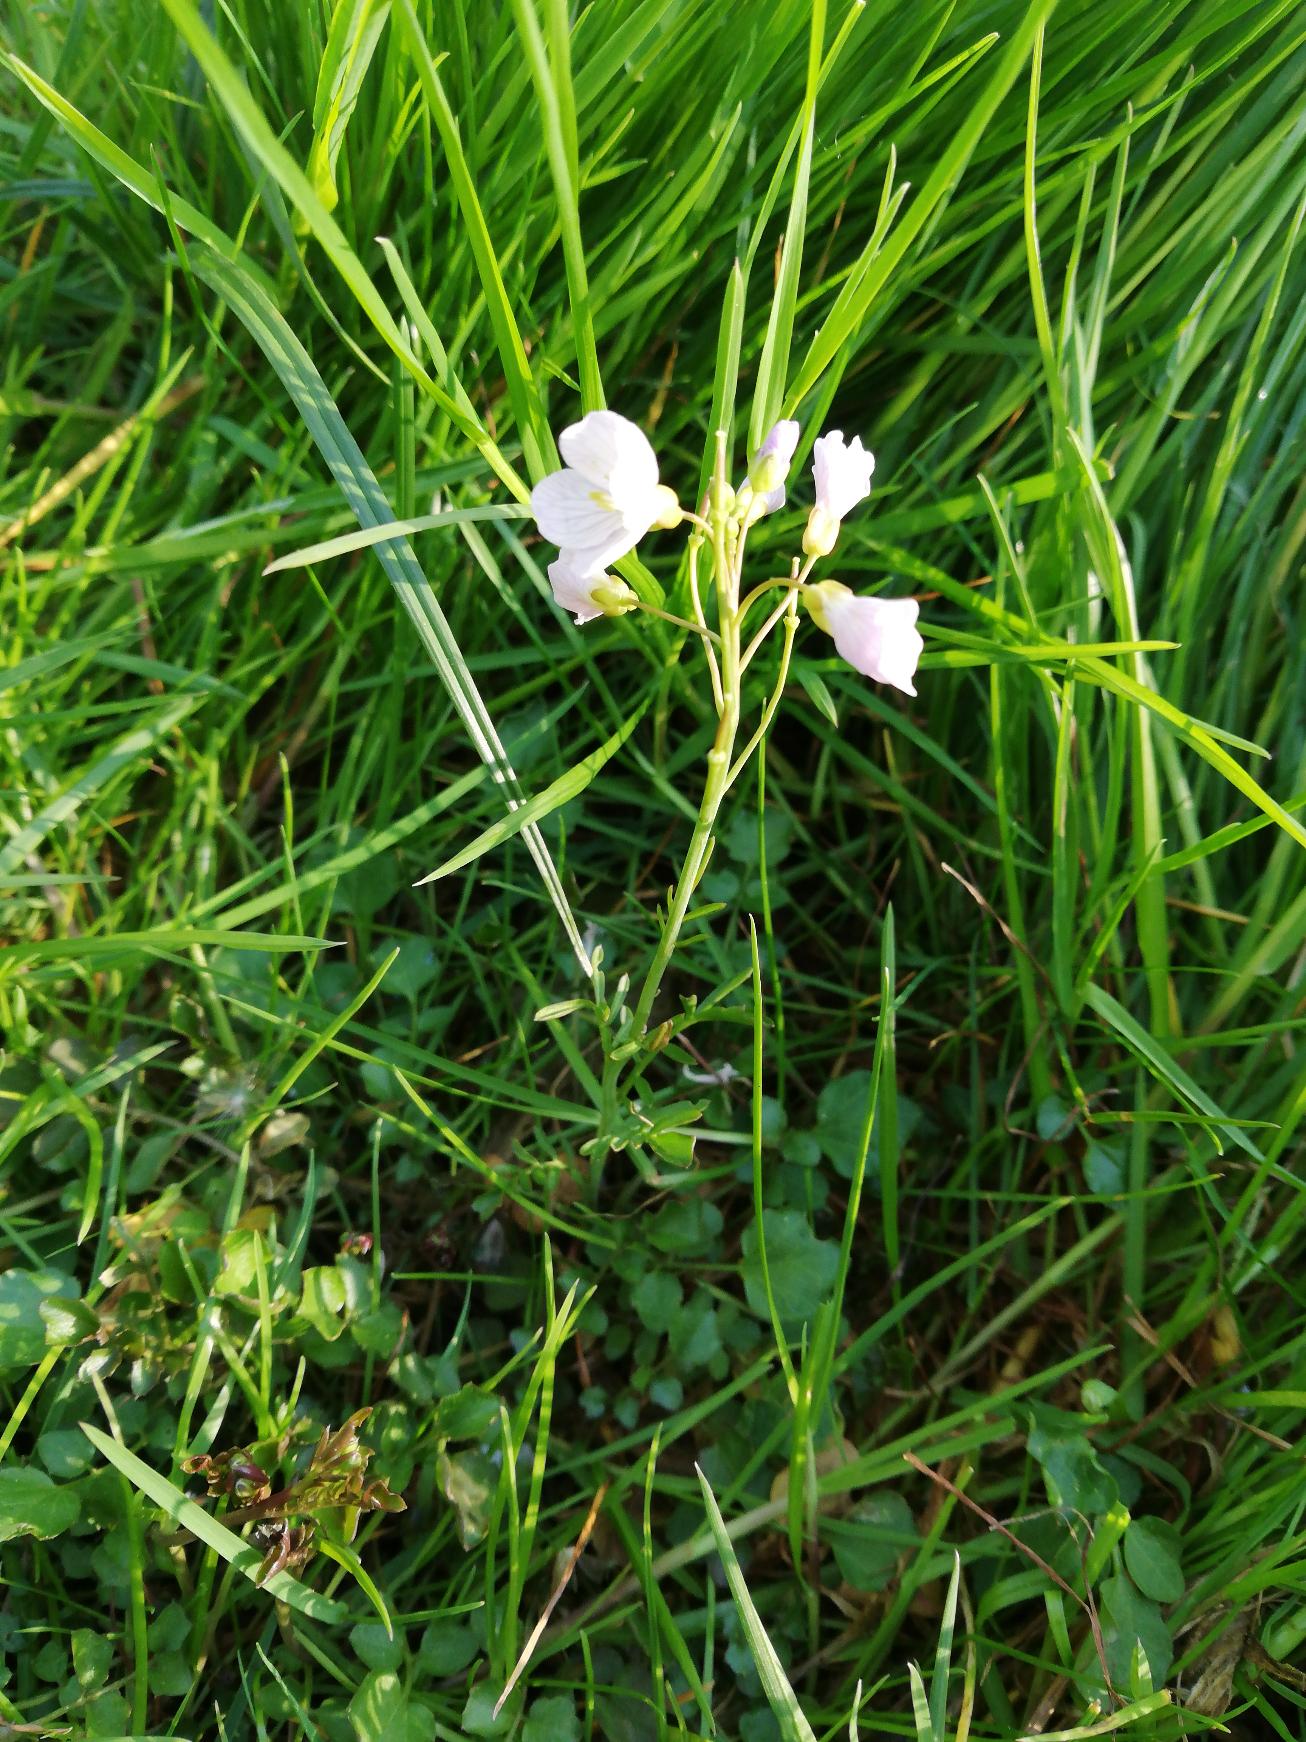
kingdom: Plantae
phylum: Tracheophyta
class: Magnoliopsida
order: Brassicales
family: Brassicaceae
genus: Cardamine
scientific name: Cardamine pratensis
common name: Engkarse
